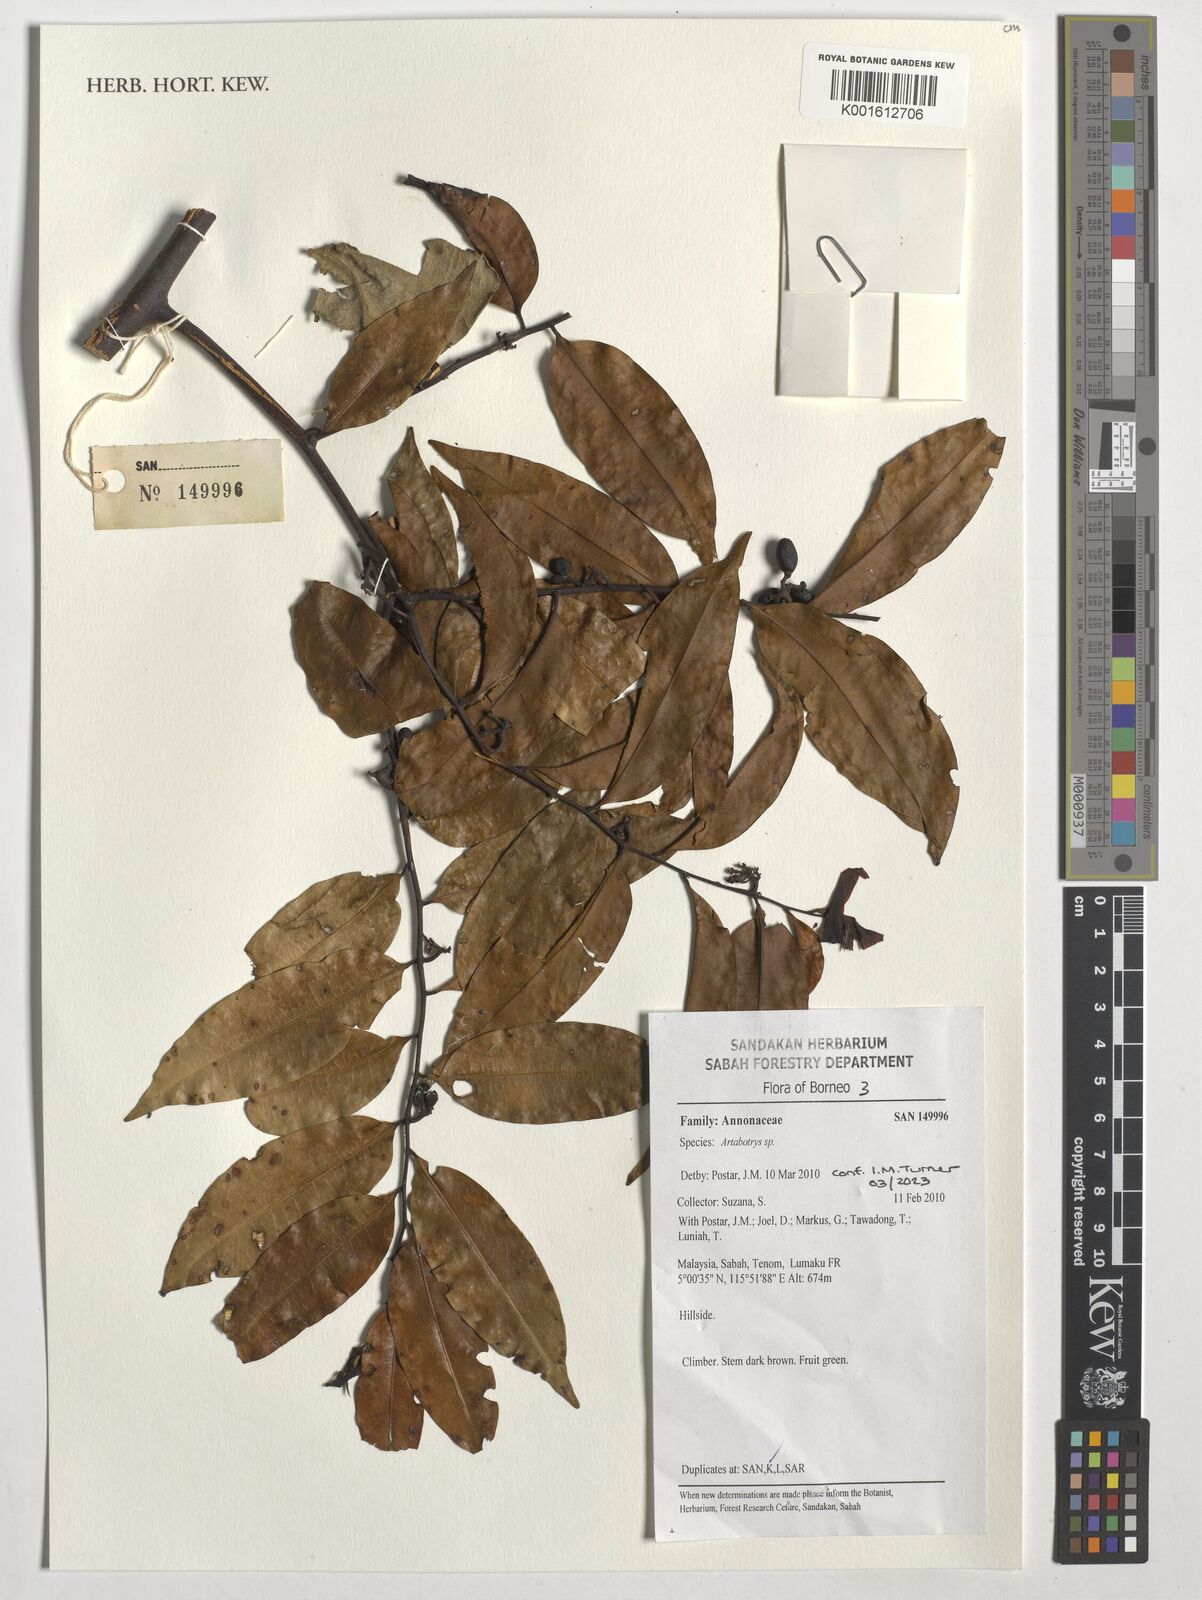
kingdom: Plantae
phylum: Tracheophyta
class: Magnoliopsida
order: Magnoliales
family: Annonaceae
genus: Artabotrys
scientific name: Artabotrys
